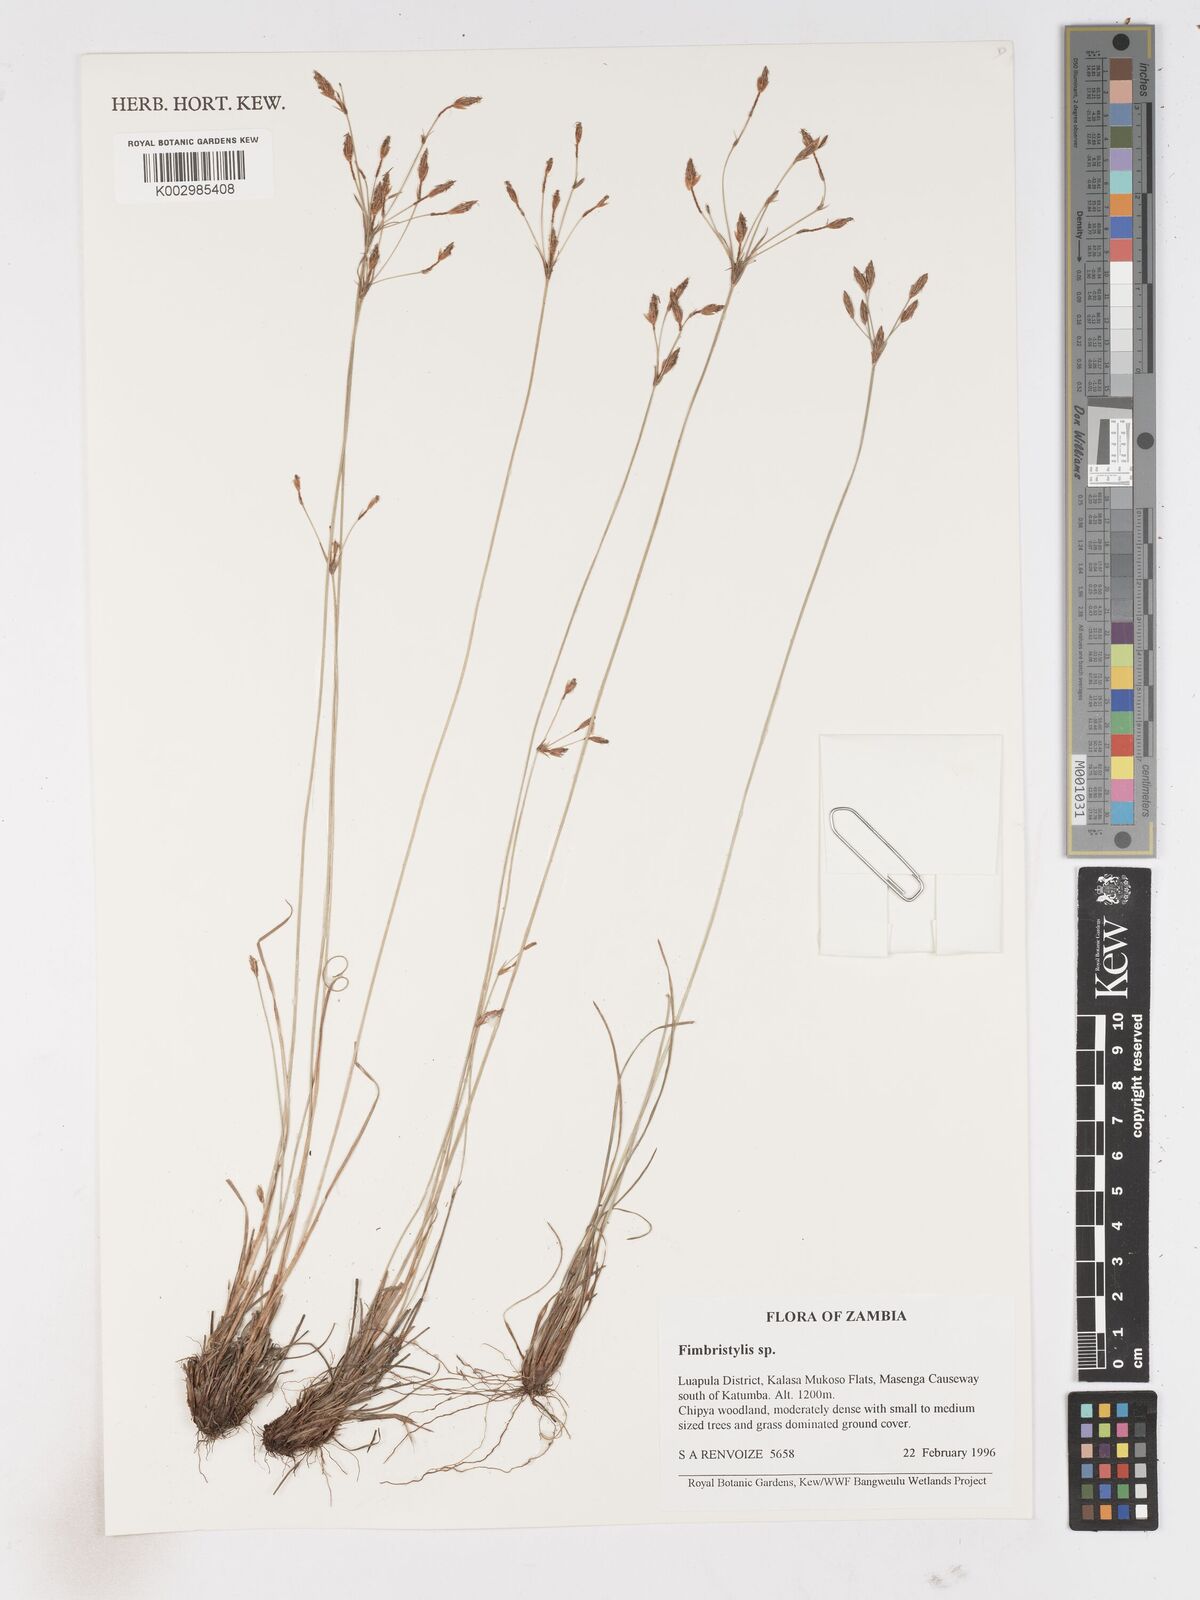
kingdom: Plantae
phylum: Tracheophyta
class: Liliopsida
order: Poales
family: Cyperaceae
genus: Fimbristylis
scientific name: Fimbristylis
